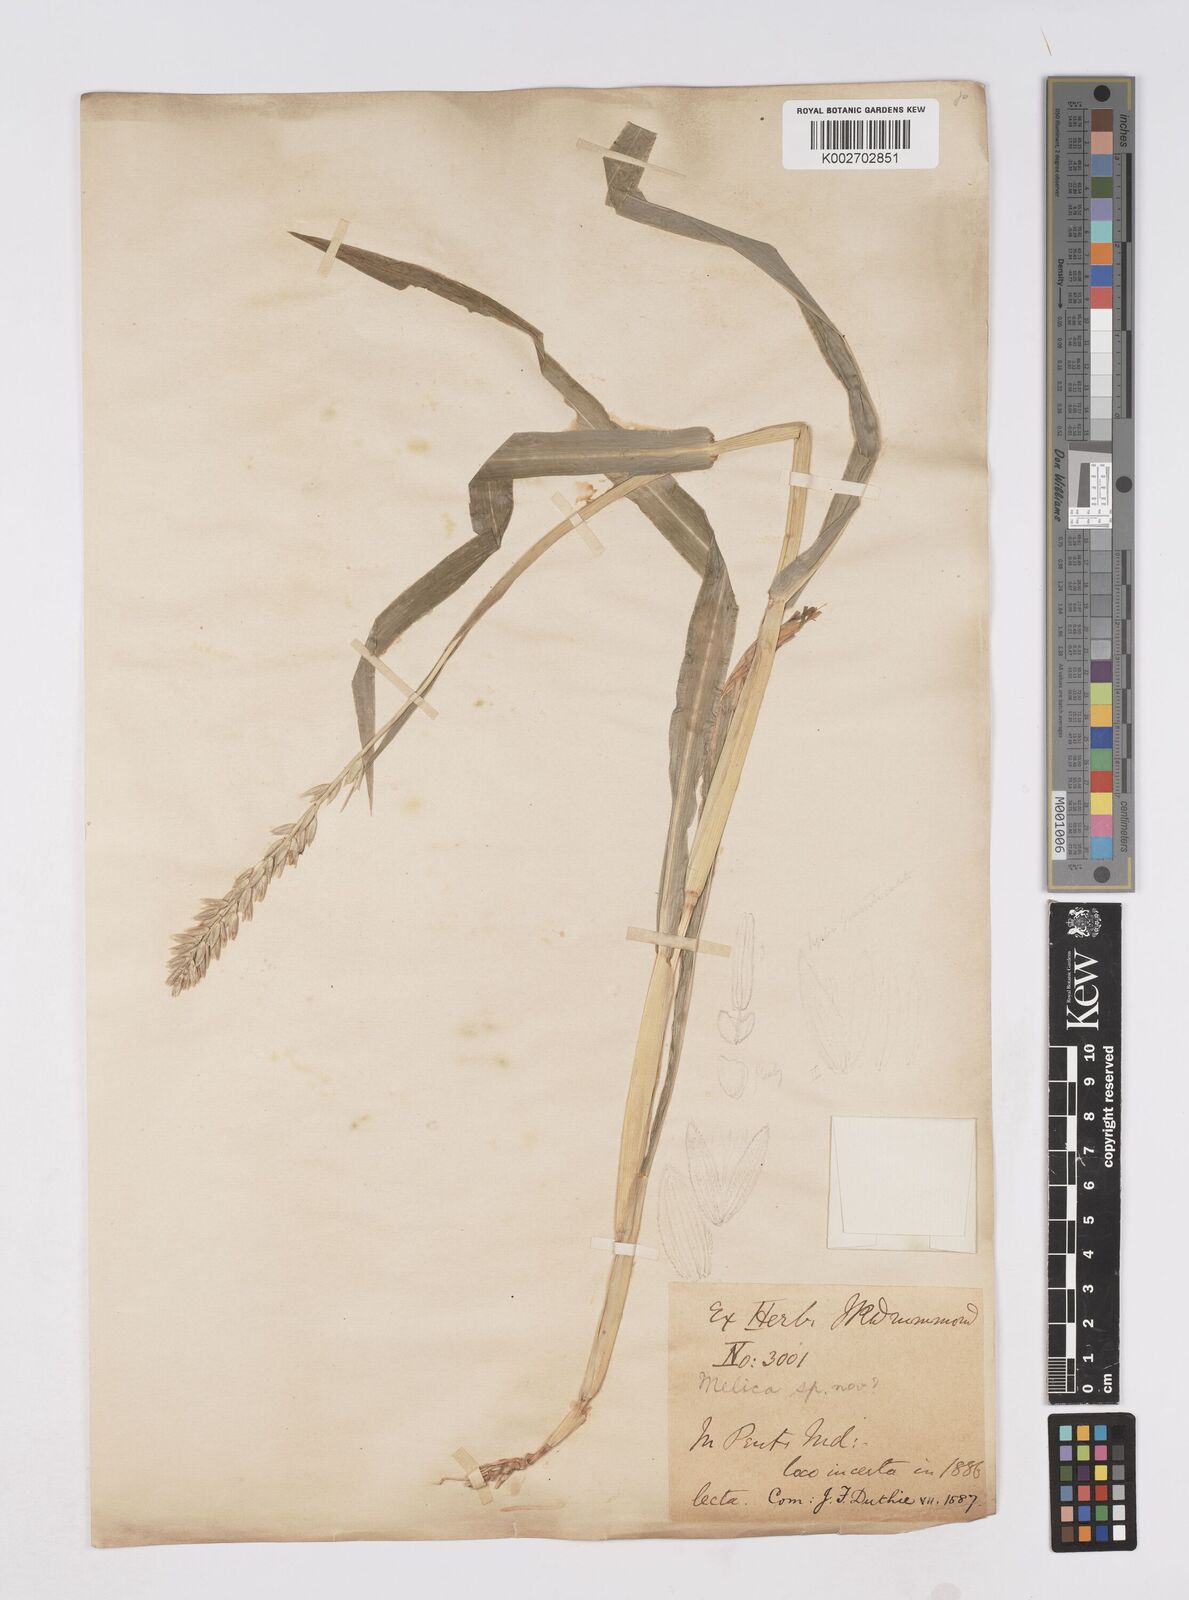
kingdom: Plantae
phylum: Tracheophyta
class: Liliopsida
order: Poales
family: Poaceae
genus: Zea
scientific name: Zea mays
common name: Maize
